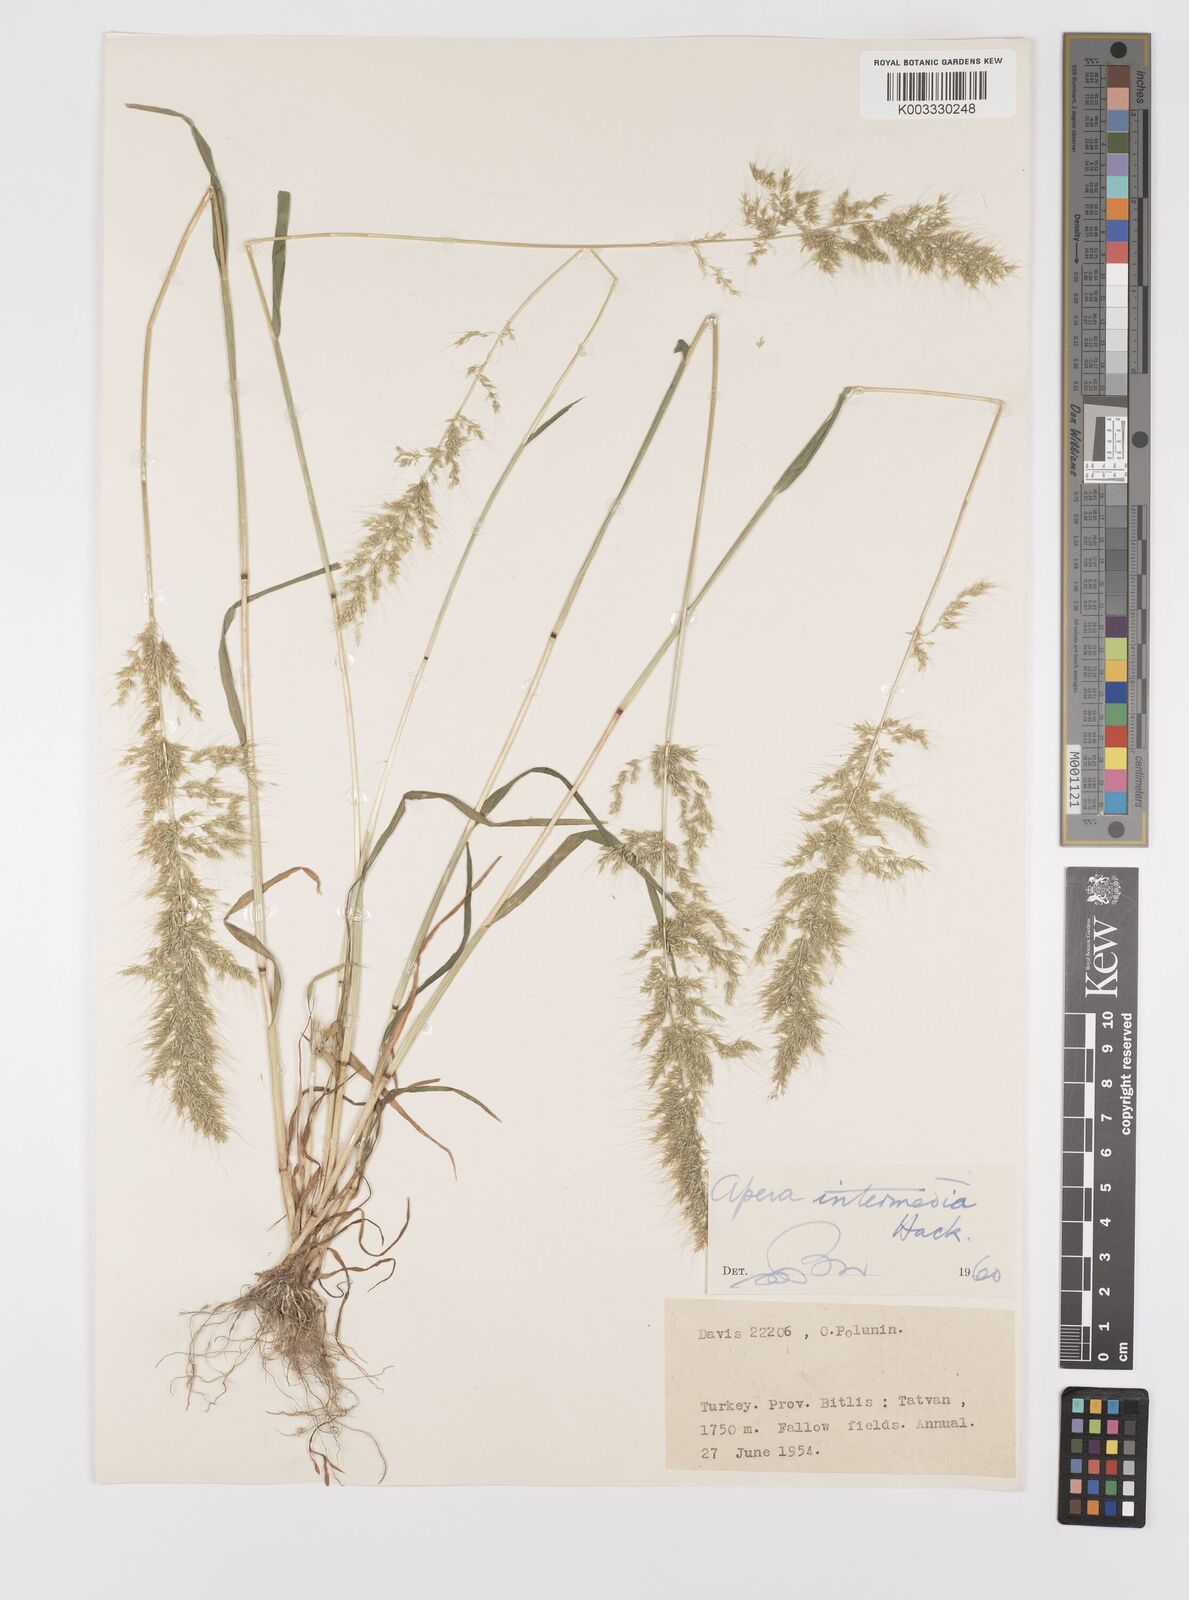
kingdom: Plantae
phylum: Tracheophyta
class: Liliopsida
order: Poales
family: Poaceae
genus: Apera
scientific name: Apera intermedia
